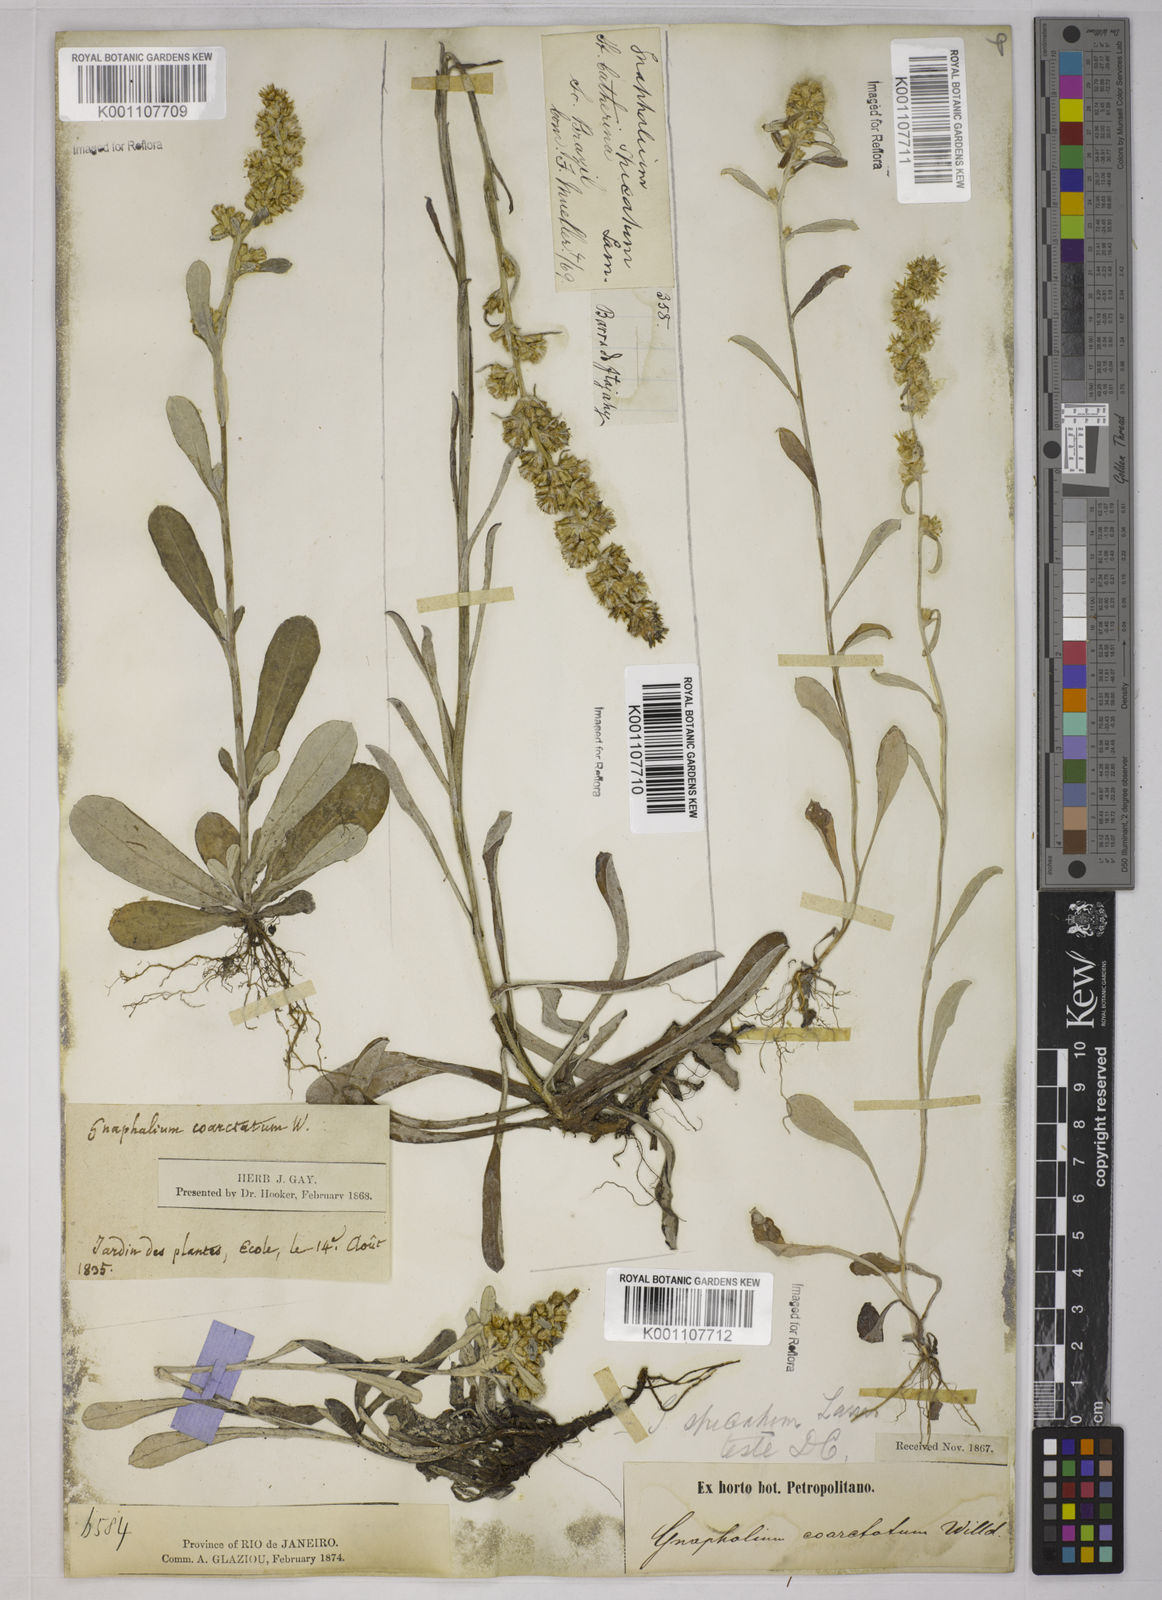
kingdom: Plantae
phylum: Tracheophyta
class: Magnoliopsida
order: Asterales
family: Asteraceae
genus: Pterocaulon
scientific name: Pterocaulon virgatum
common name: Wand blackroot
